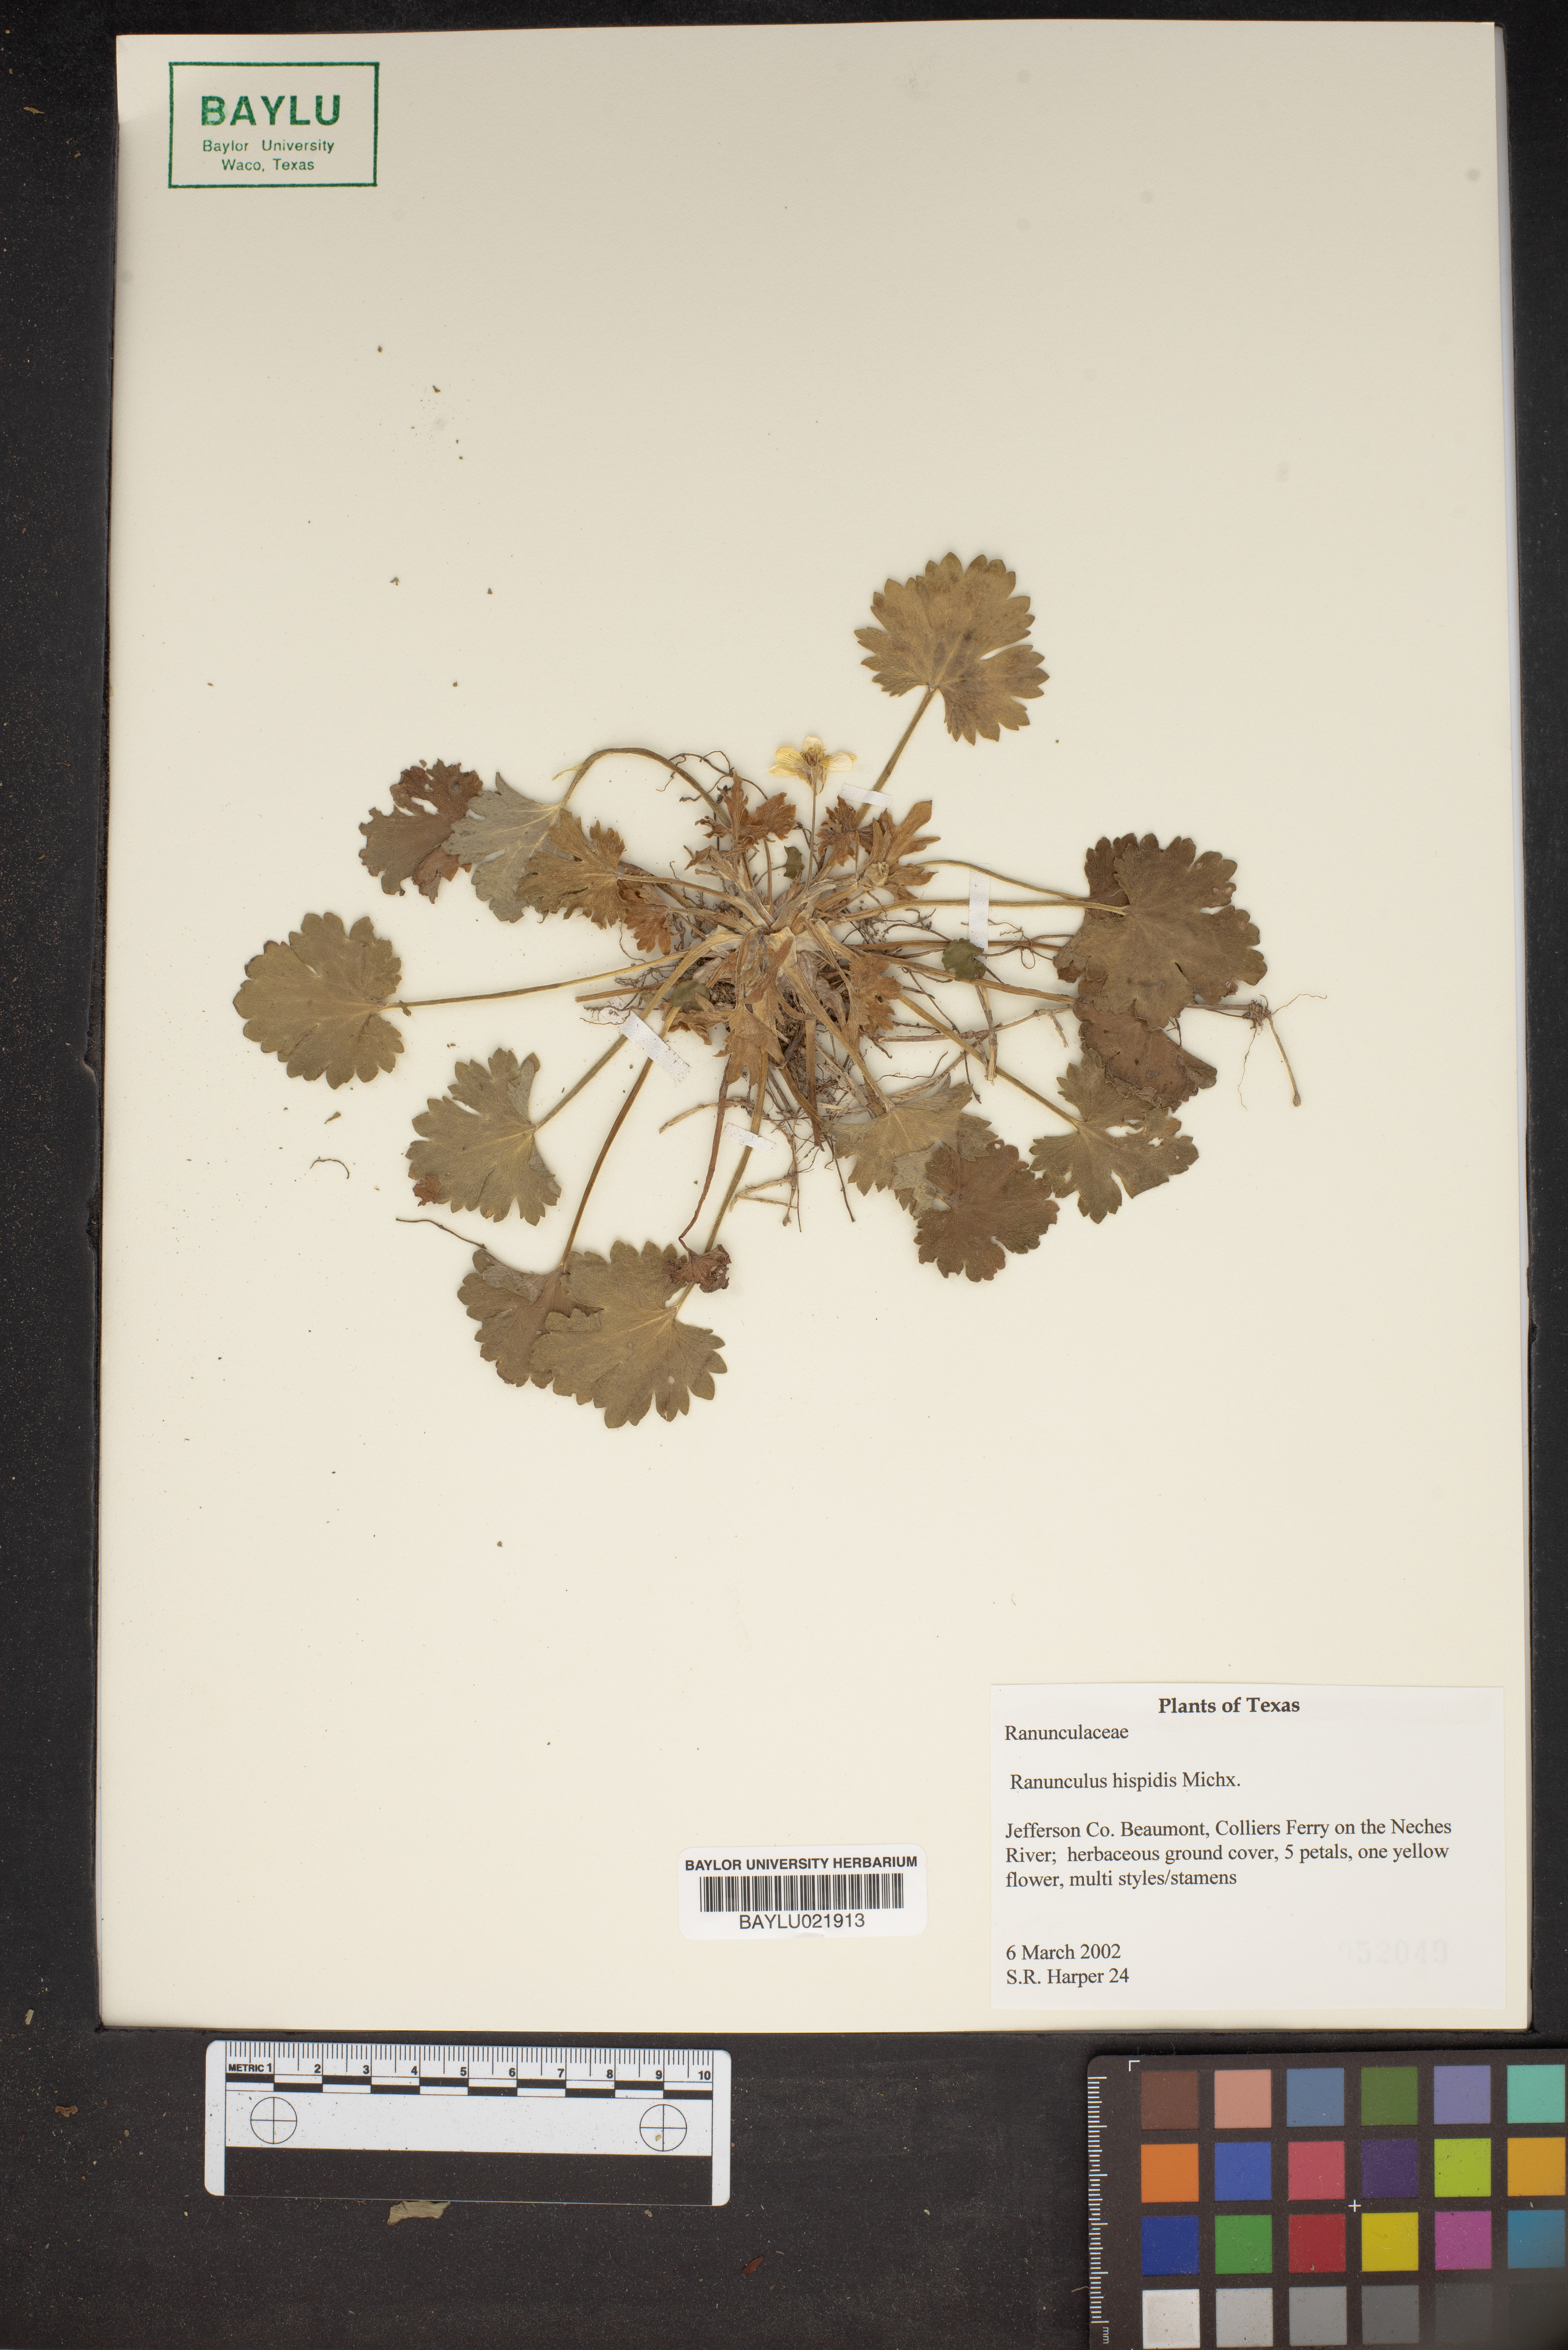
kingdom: Plantae
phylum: Tracheophyta
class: Magnoliopsida
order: Ranunculales
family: Ranunculaceae
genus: Ranunculus
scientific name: Ranunculus hispidus
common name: Bristly buttercup
